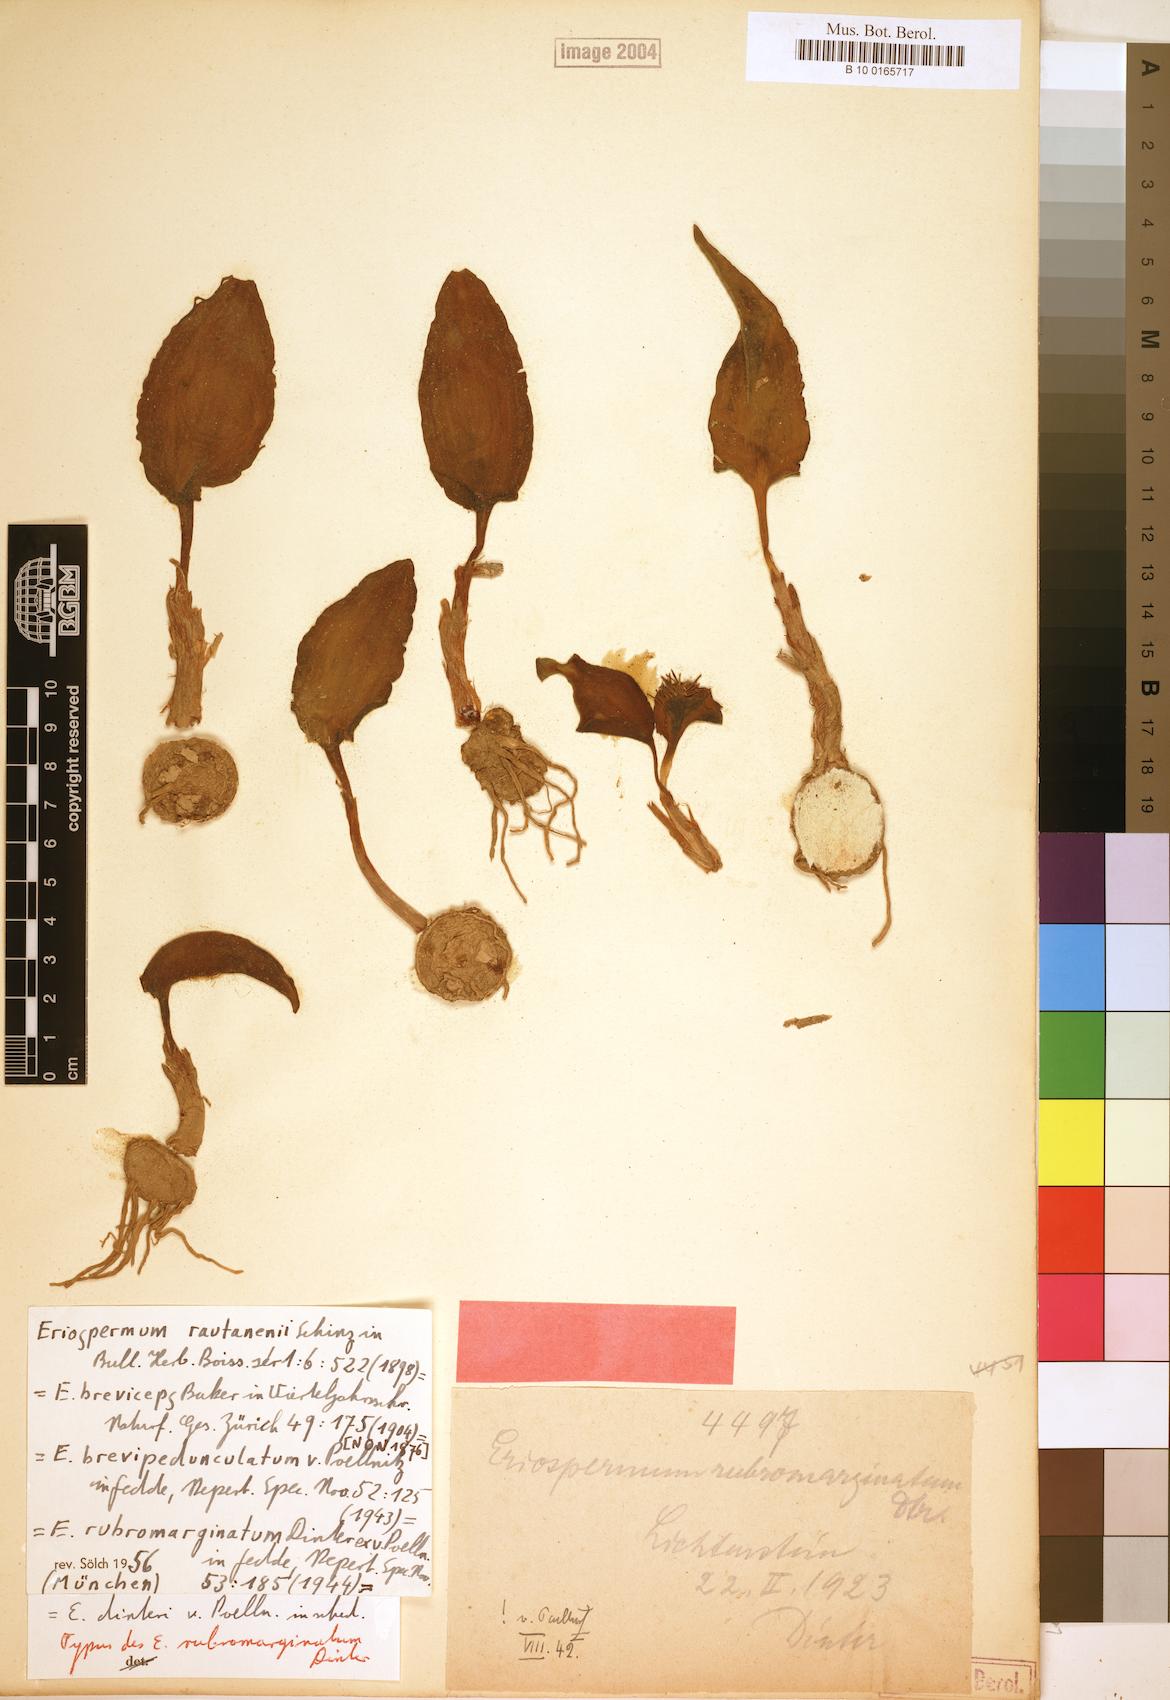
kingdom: Plantae
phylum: Tracheophyta
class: Liliopsida
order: Asparagales
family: Asparagaceae
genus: Eriospermum
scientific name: Eriospermum currorii
